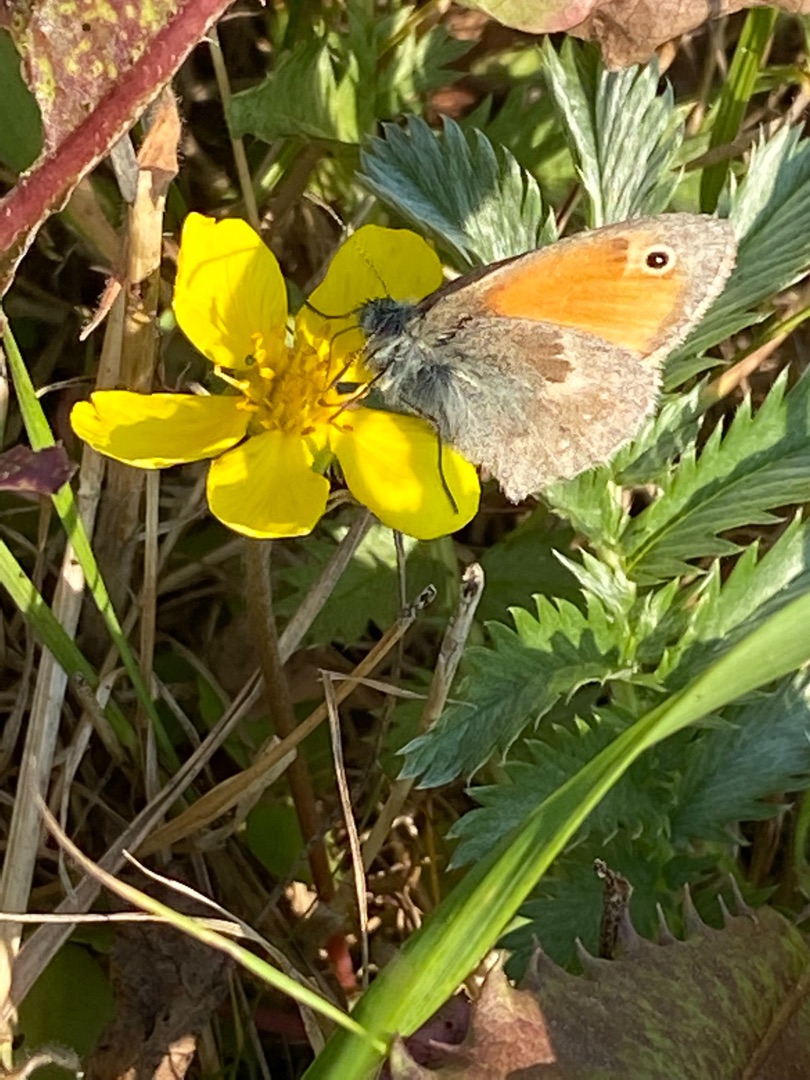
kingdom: Animalia
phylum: Arthropoda
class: Insecta
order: Lepidoptera
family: Nymphalidae
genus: Coenonympha
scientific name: Coenonympha pamphilus
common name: Okkergul randøje
